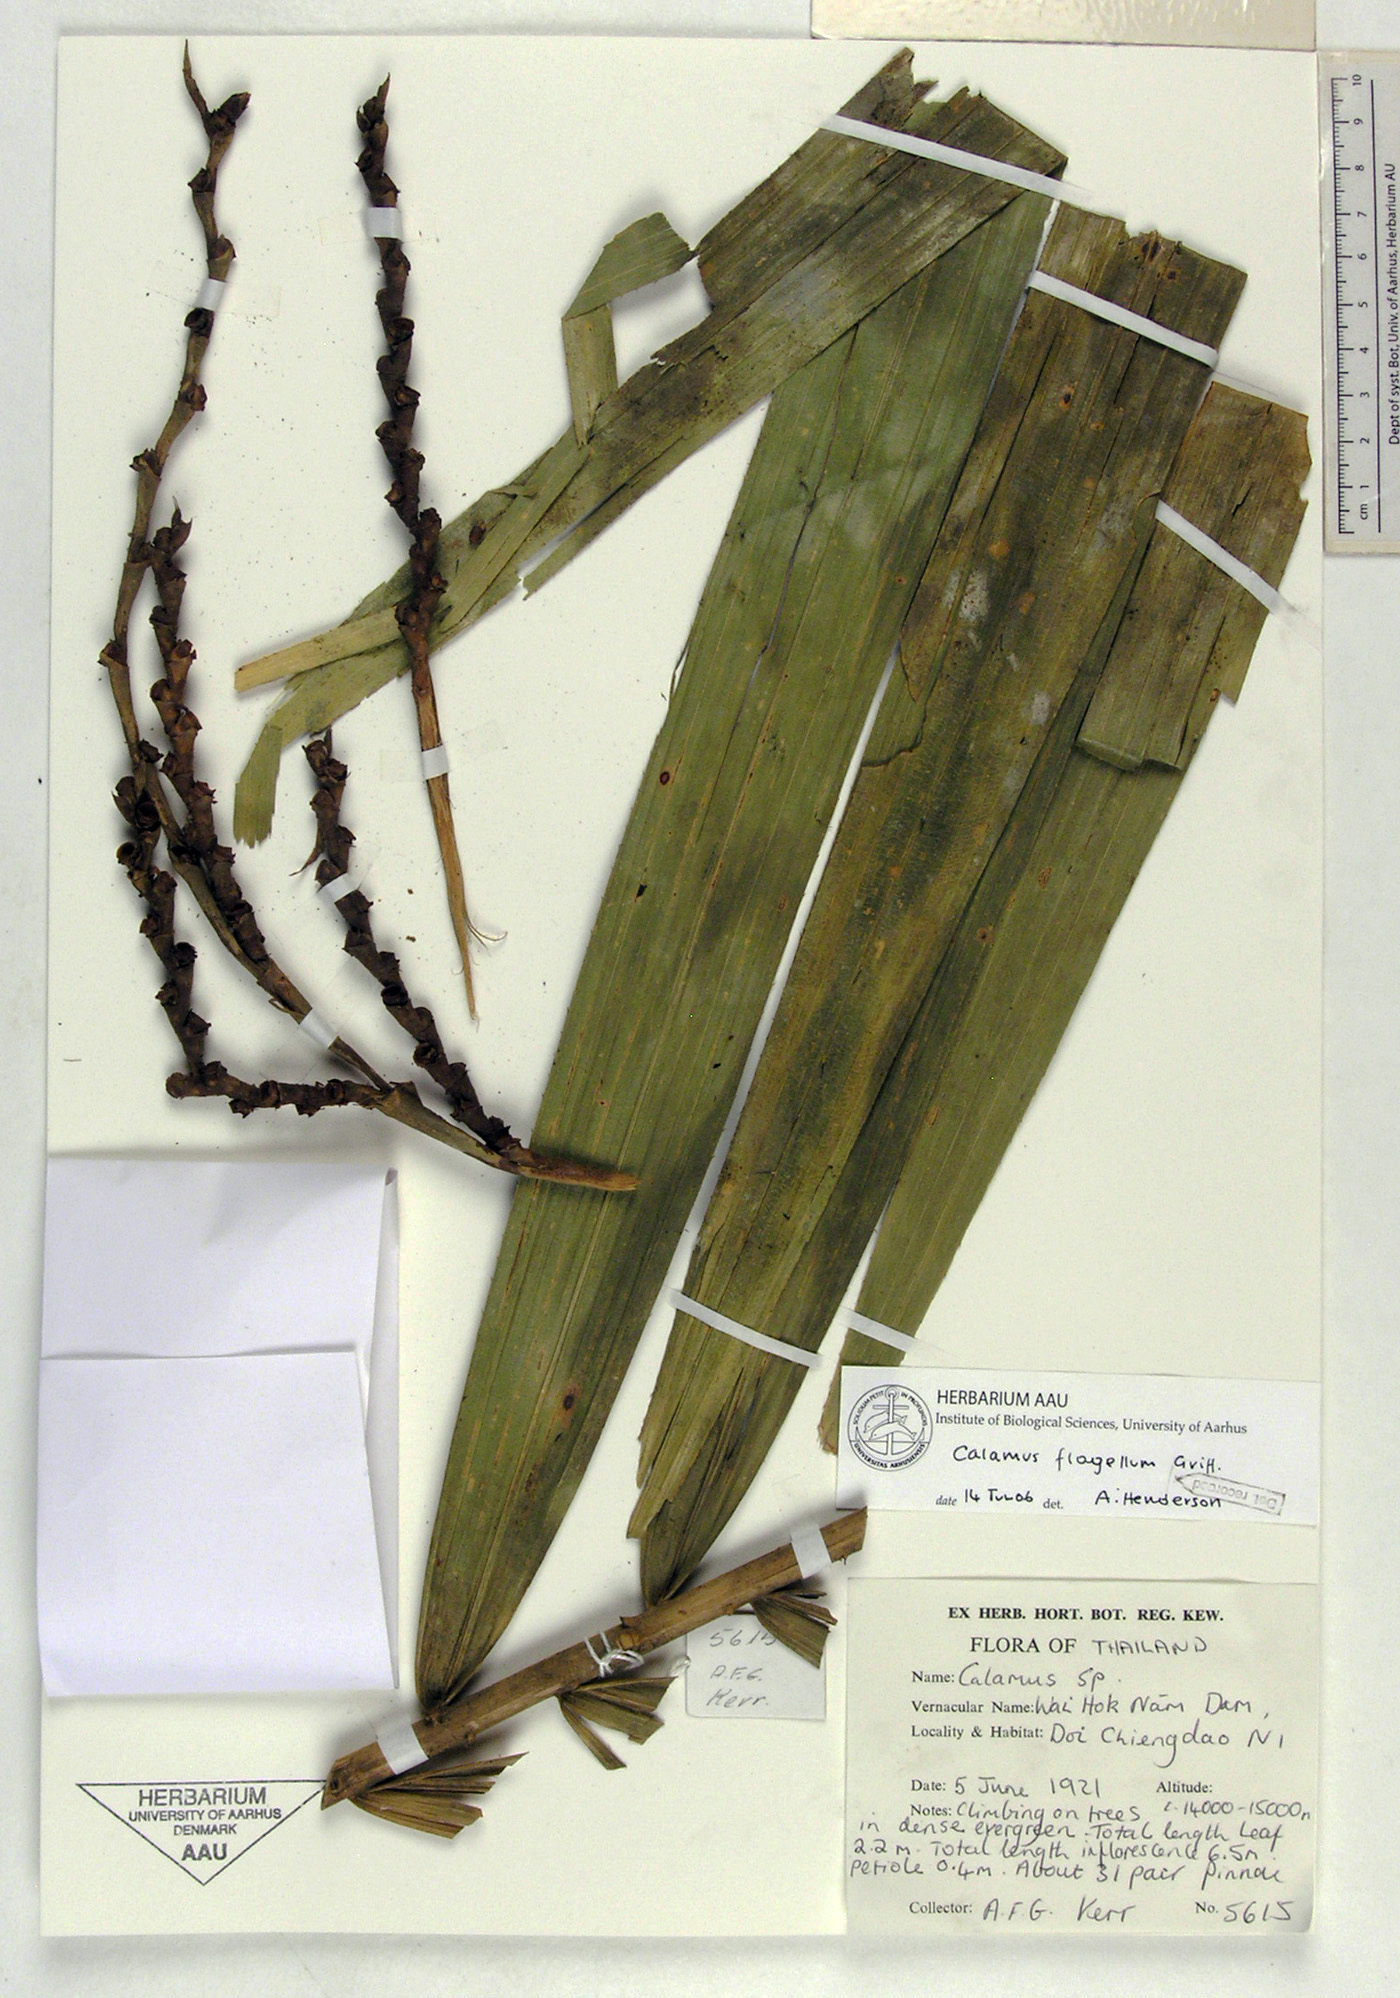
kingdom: Plantae
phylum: Tracheophyta
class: Liliopsida
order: Arecales
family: Arecaceae
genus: Calamus
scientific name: Calamus flagellum
